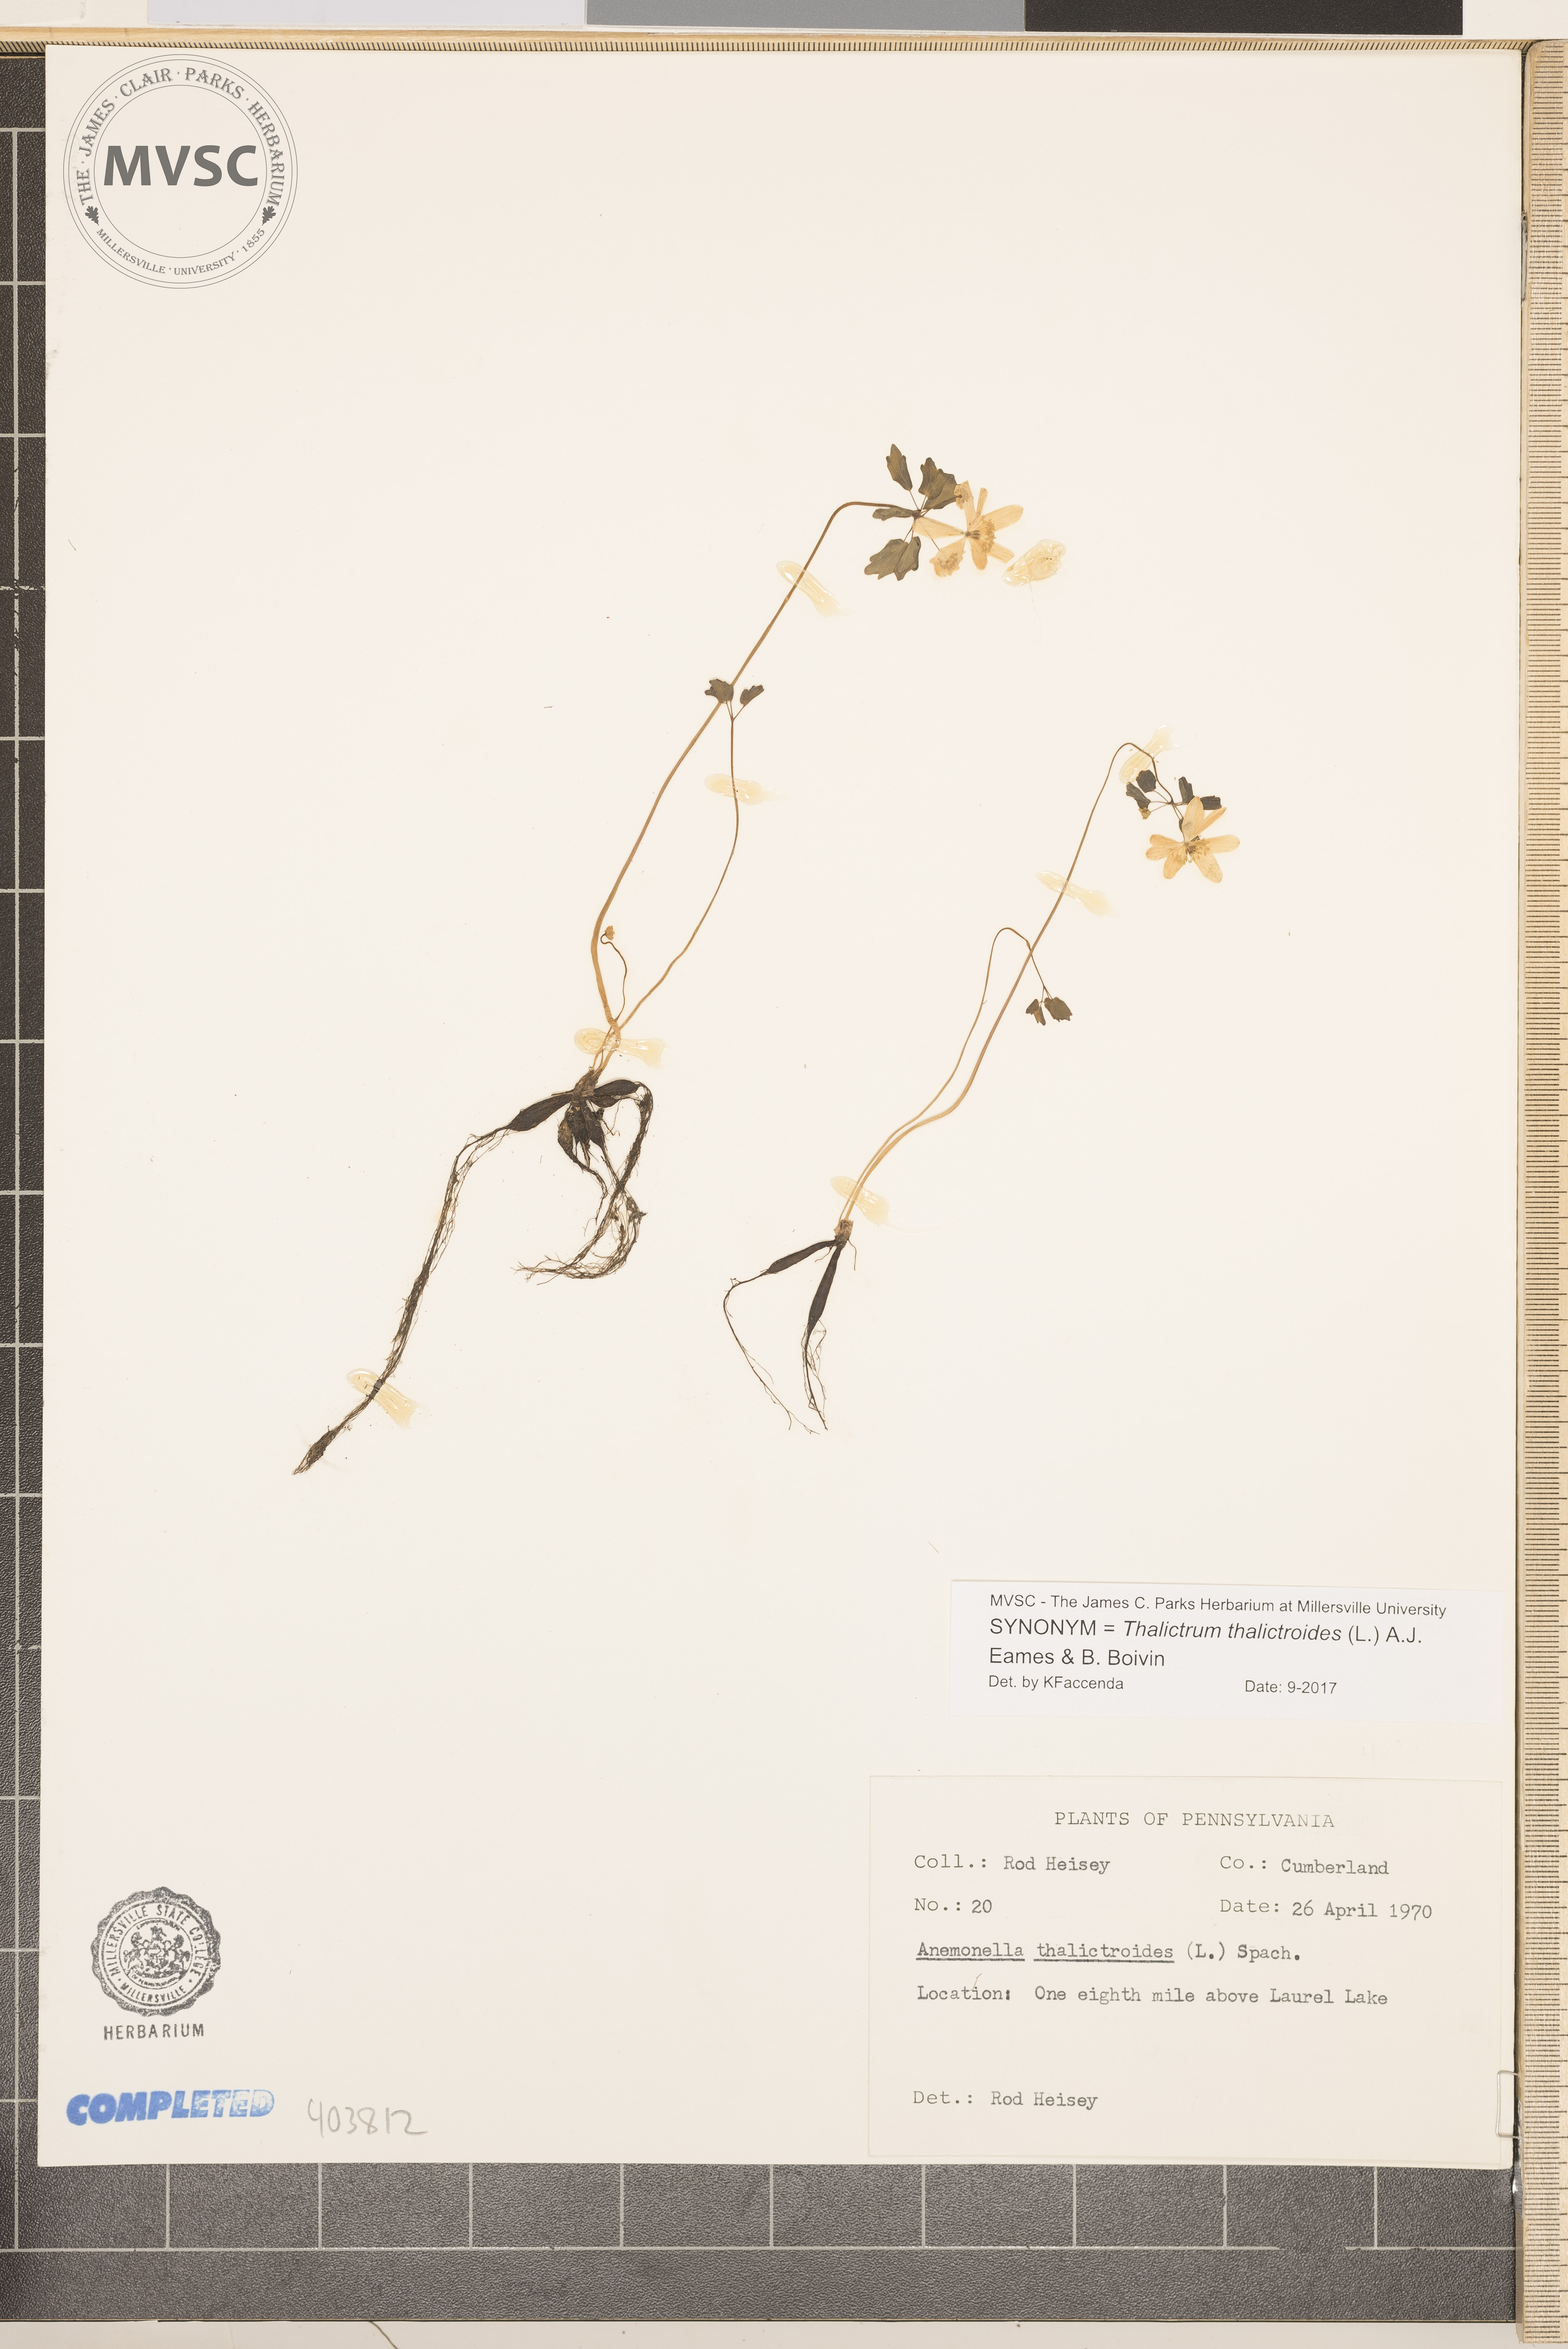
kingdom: Plantae
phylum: Tracheophyta
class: Magnoliopsida
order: Ranunculales
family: Ranunculaceae
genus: Thalictrum
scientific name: Thalictrum thalictroides
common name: Rue anemone
